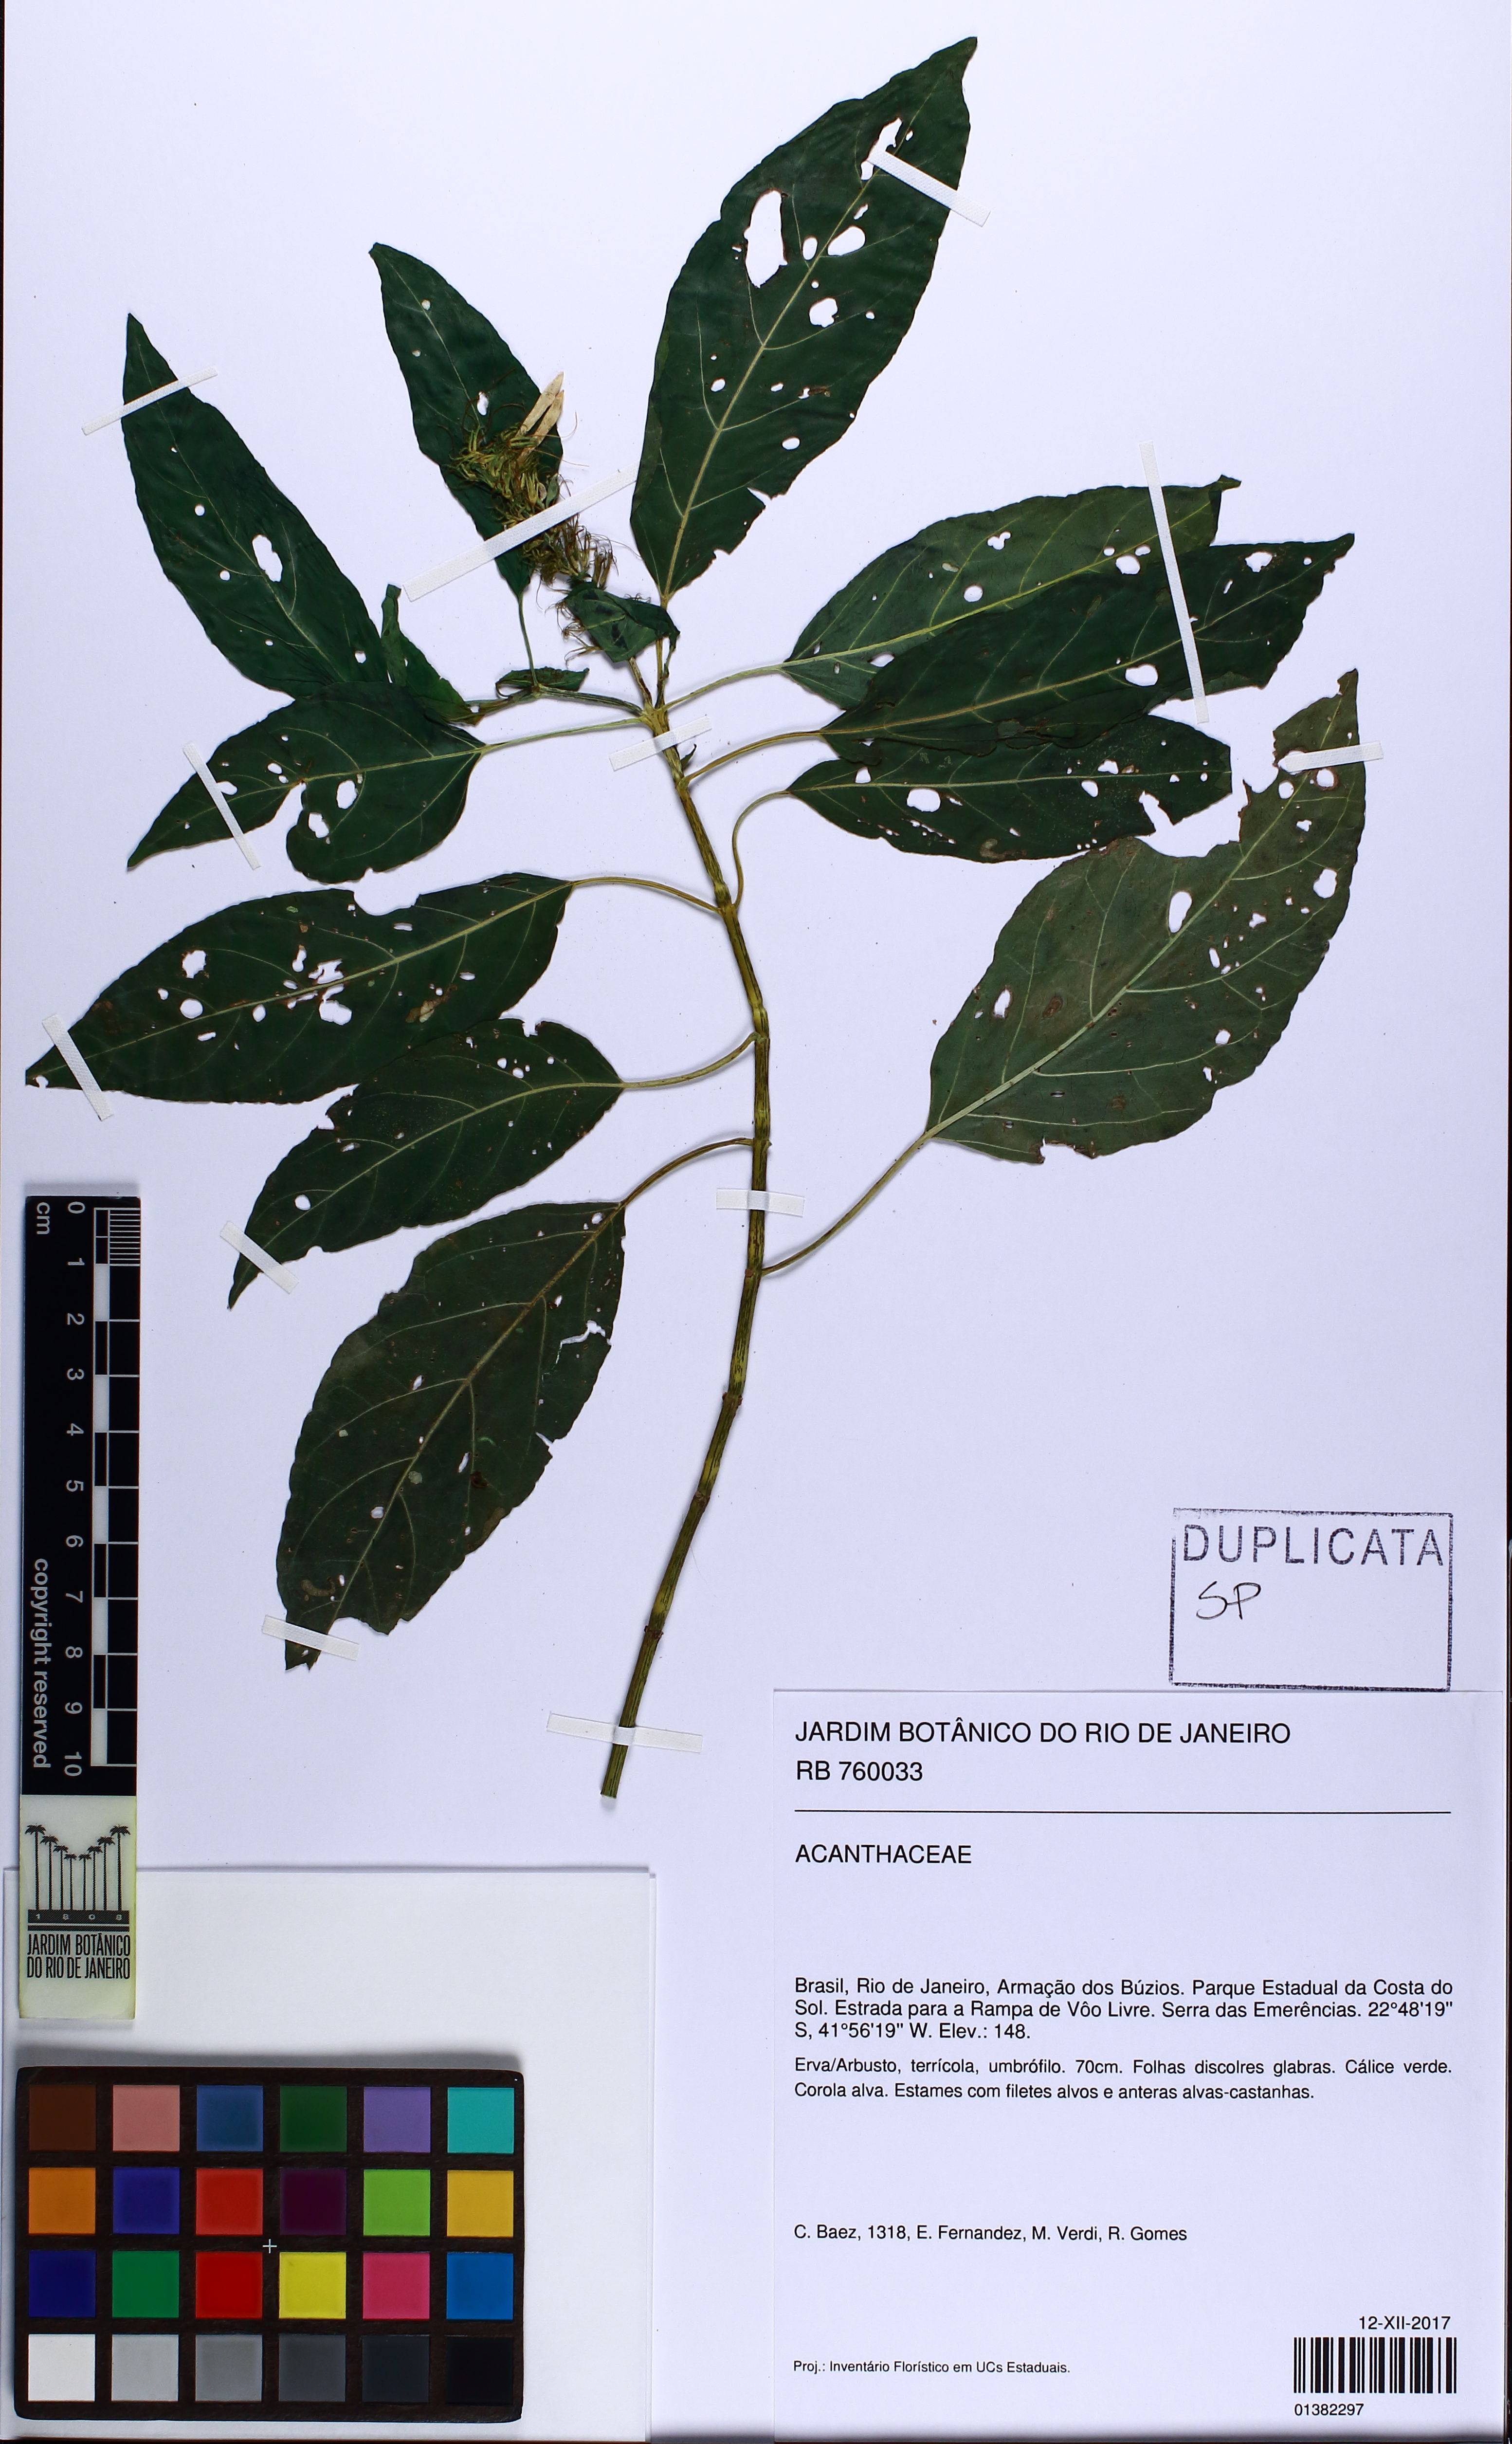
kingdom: Plantae
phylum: Tracheophyta
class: Magnoliopsida
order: Lamiales
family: Acanthaceae
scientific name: Acanthaceae
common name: Acanthaceae
